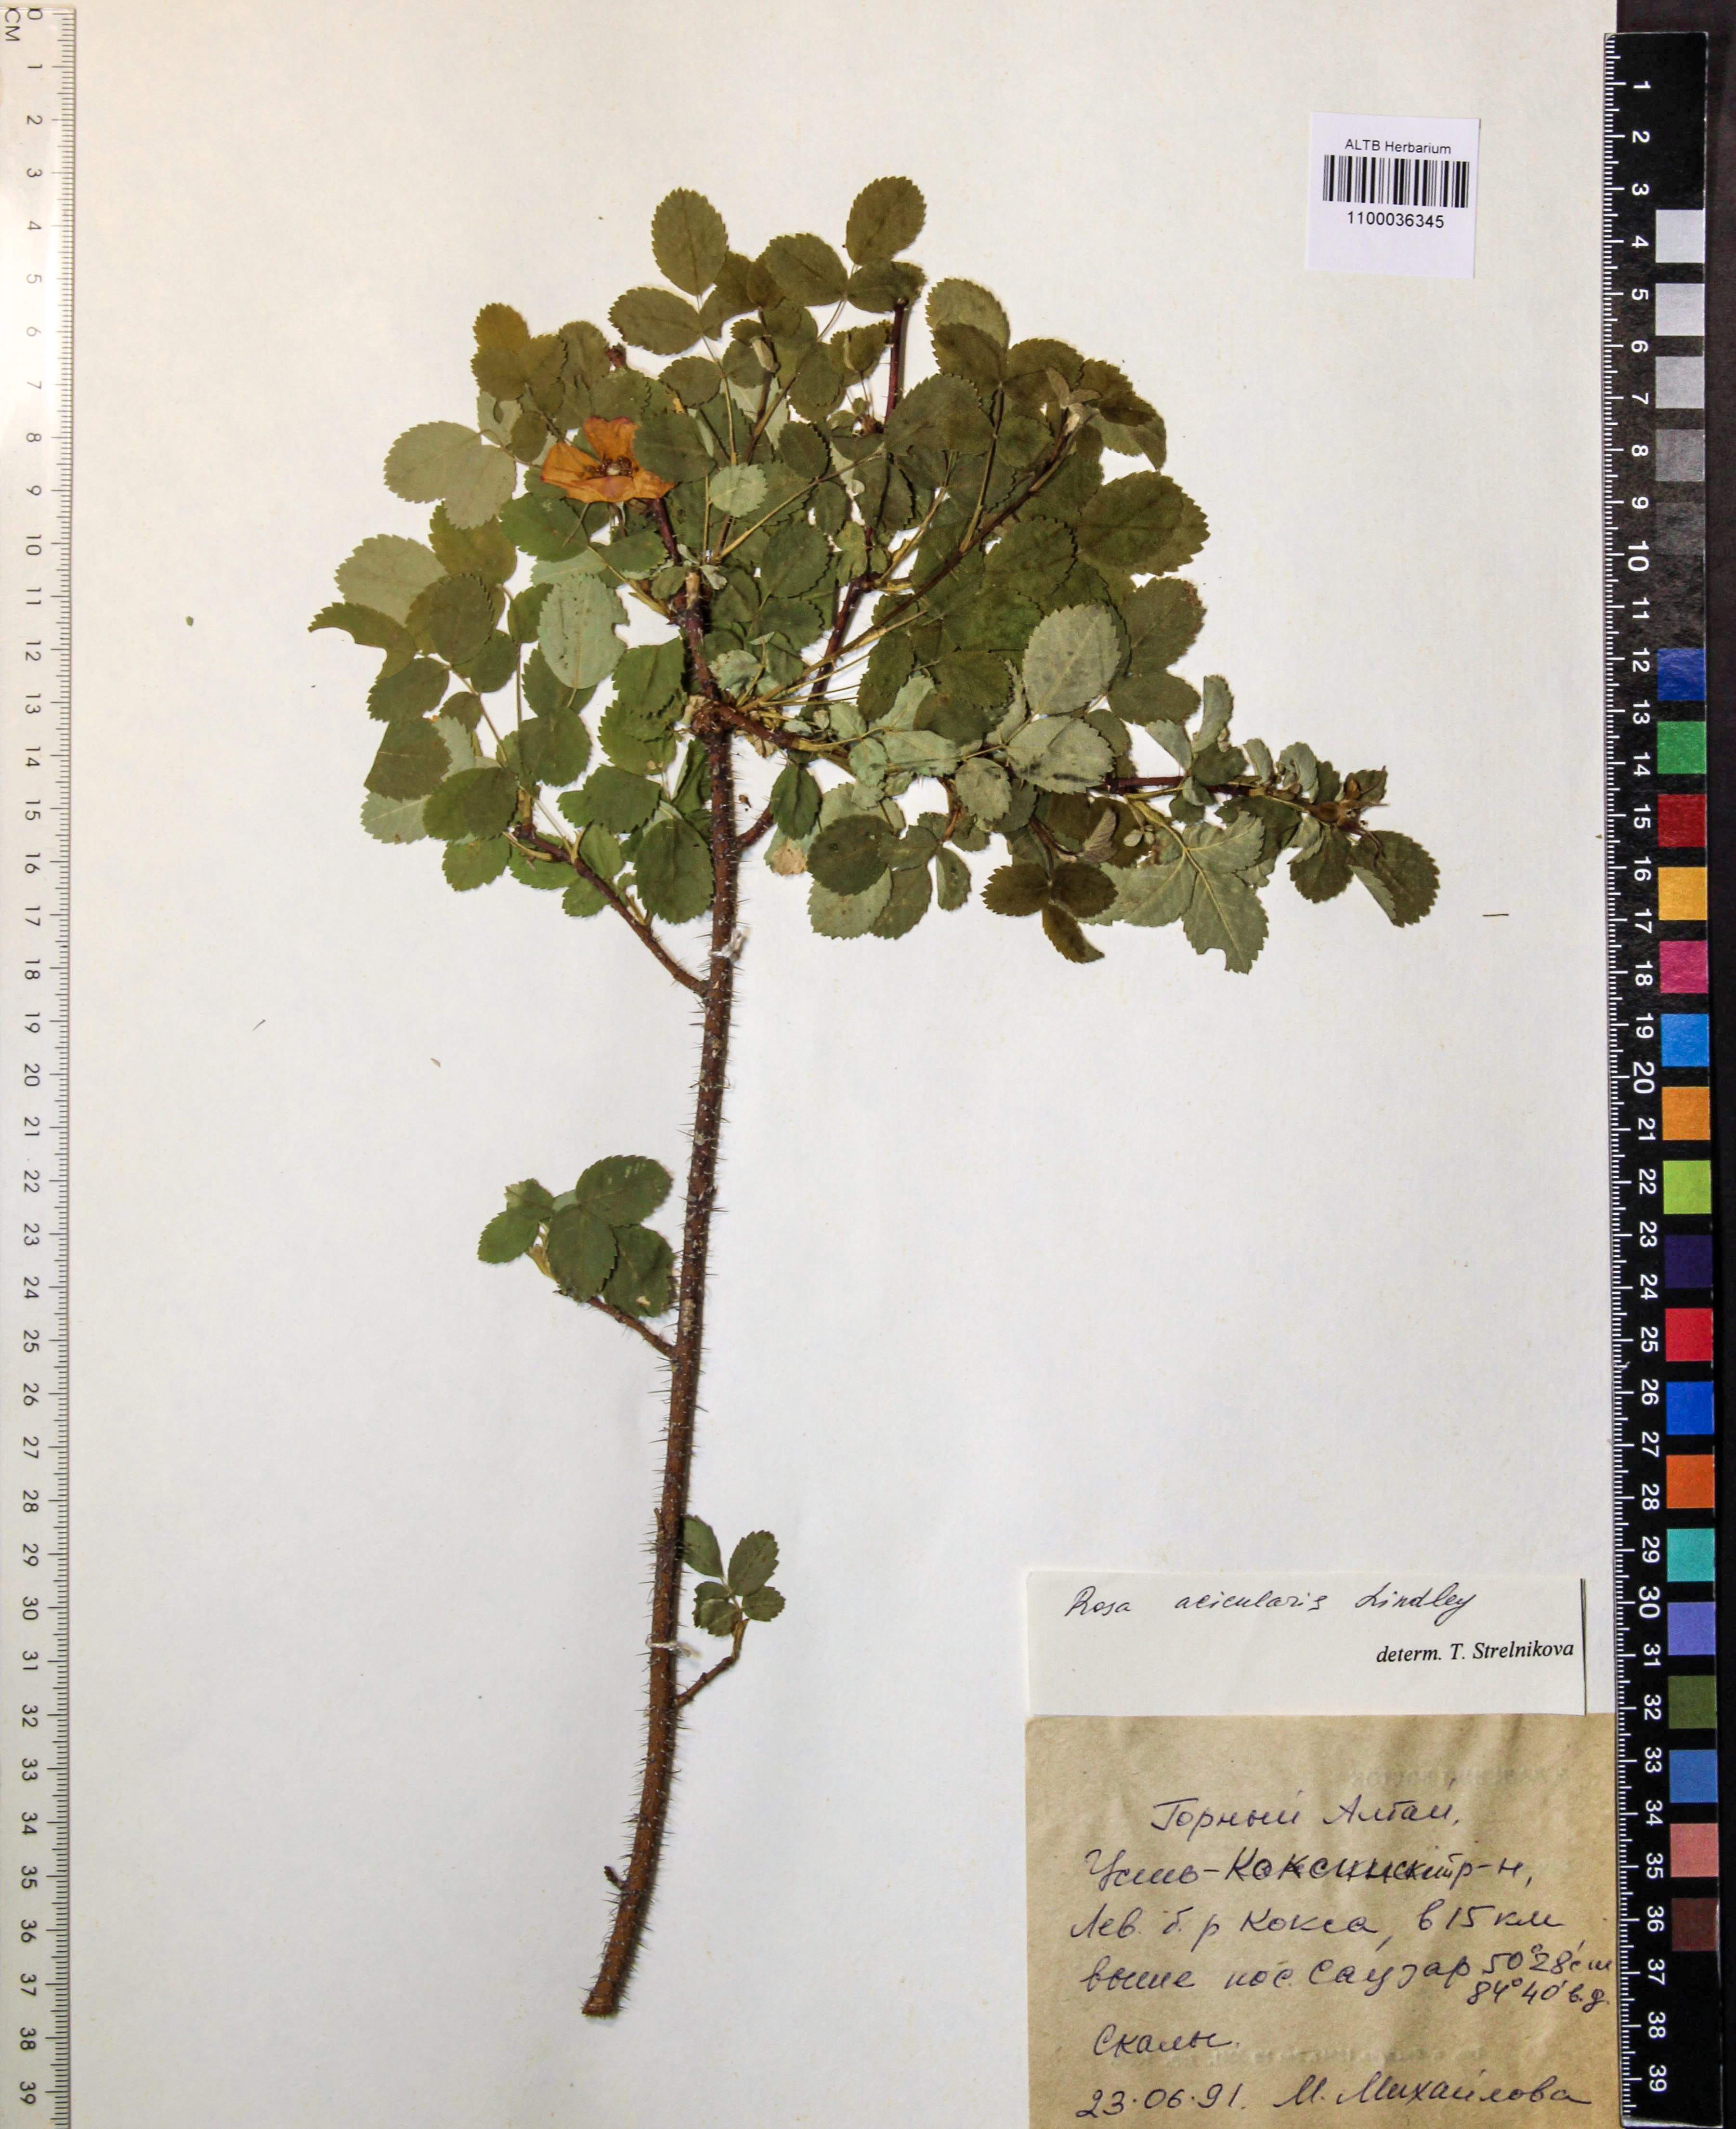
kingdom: Plantae
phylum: Tracheophyta
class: Magnoliopsida
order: Rosales
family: Rosaceae
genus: Rosa
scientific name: Rosa acicularis
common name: Prickly rose
